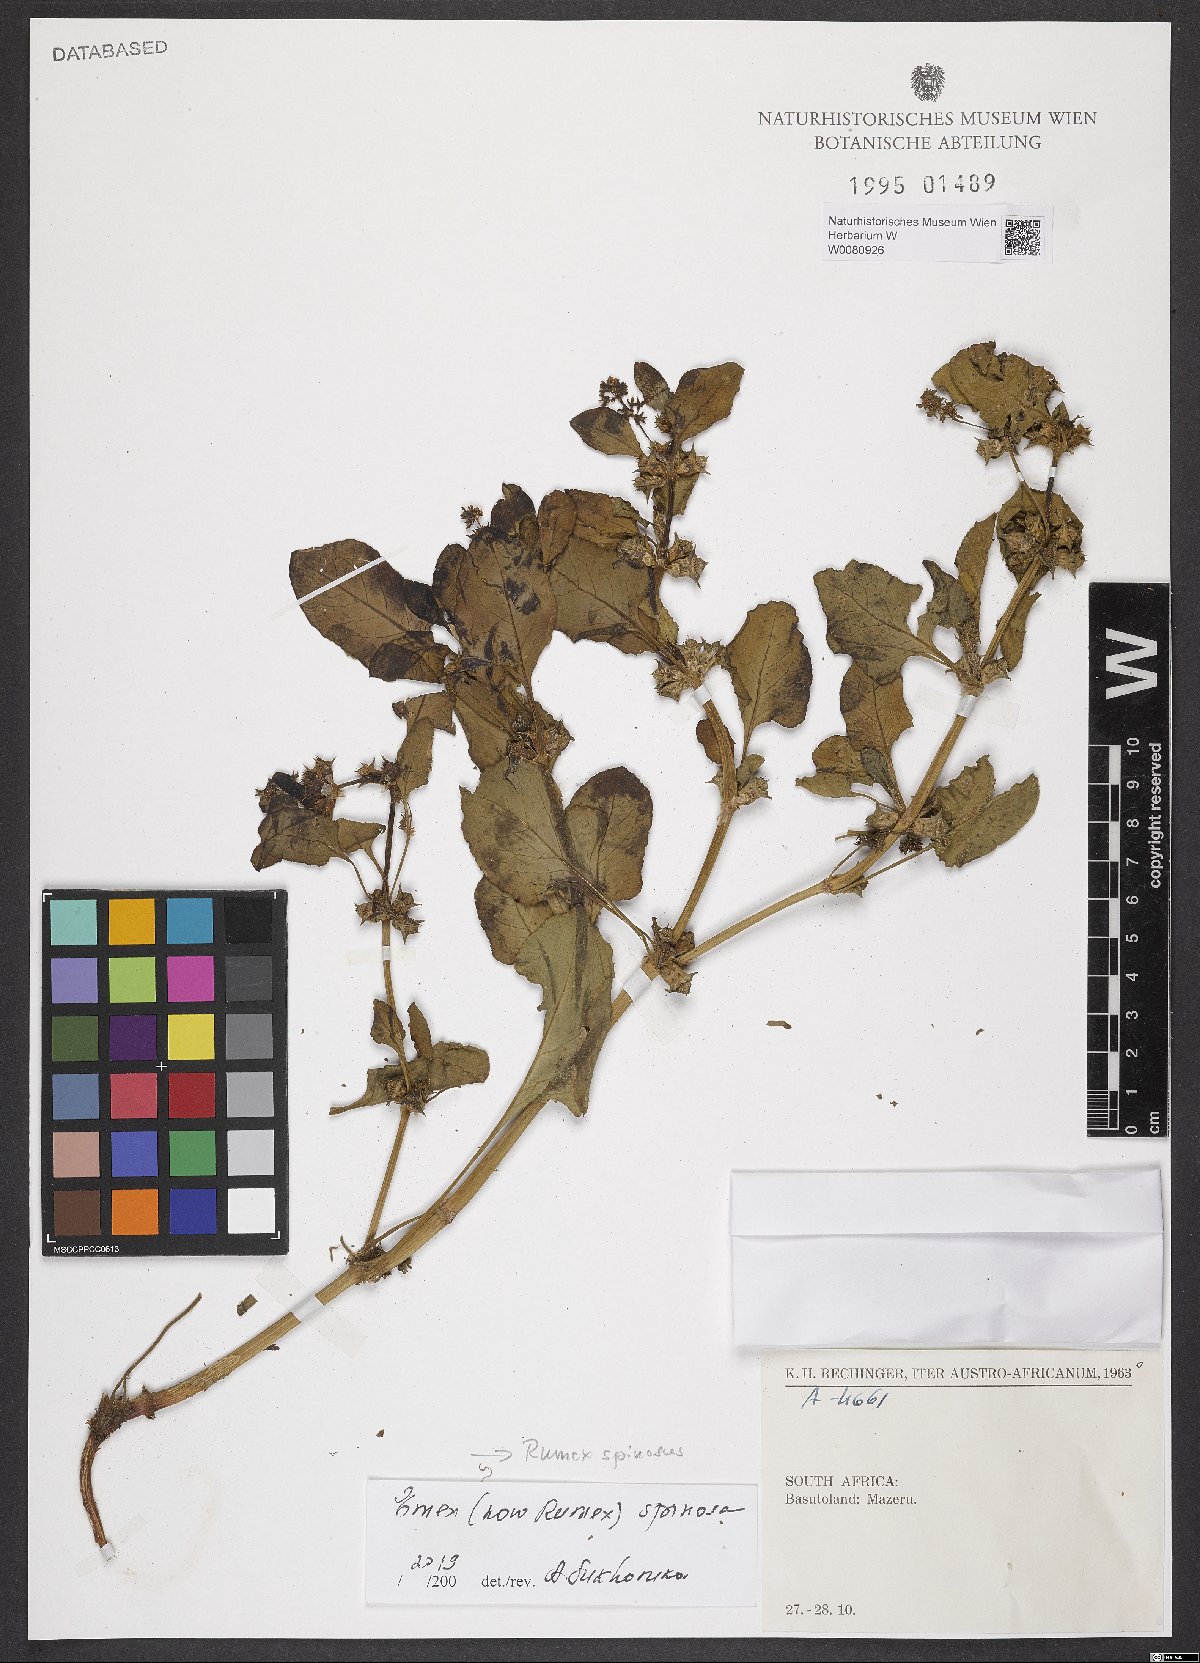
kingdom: Plantae
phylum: Tracheophyta
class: Magnoliopsida
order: Caryophyllales
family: Polygonaceae
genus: Rumex
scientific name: Rumex spinosus
